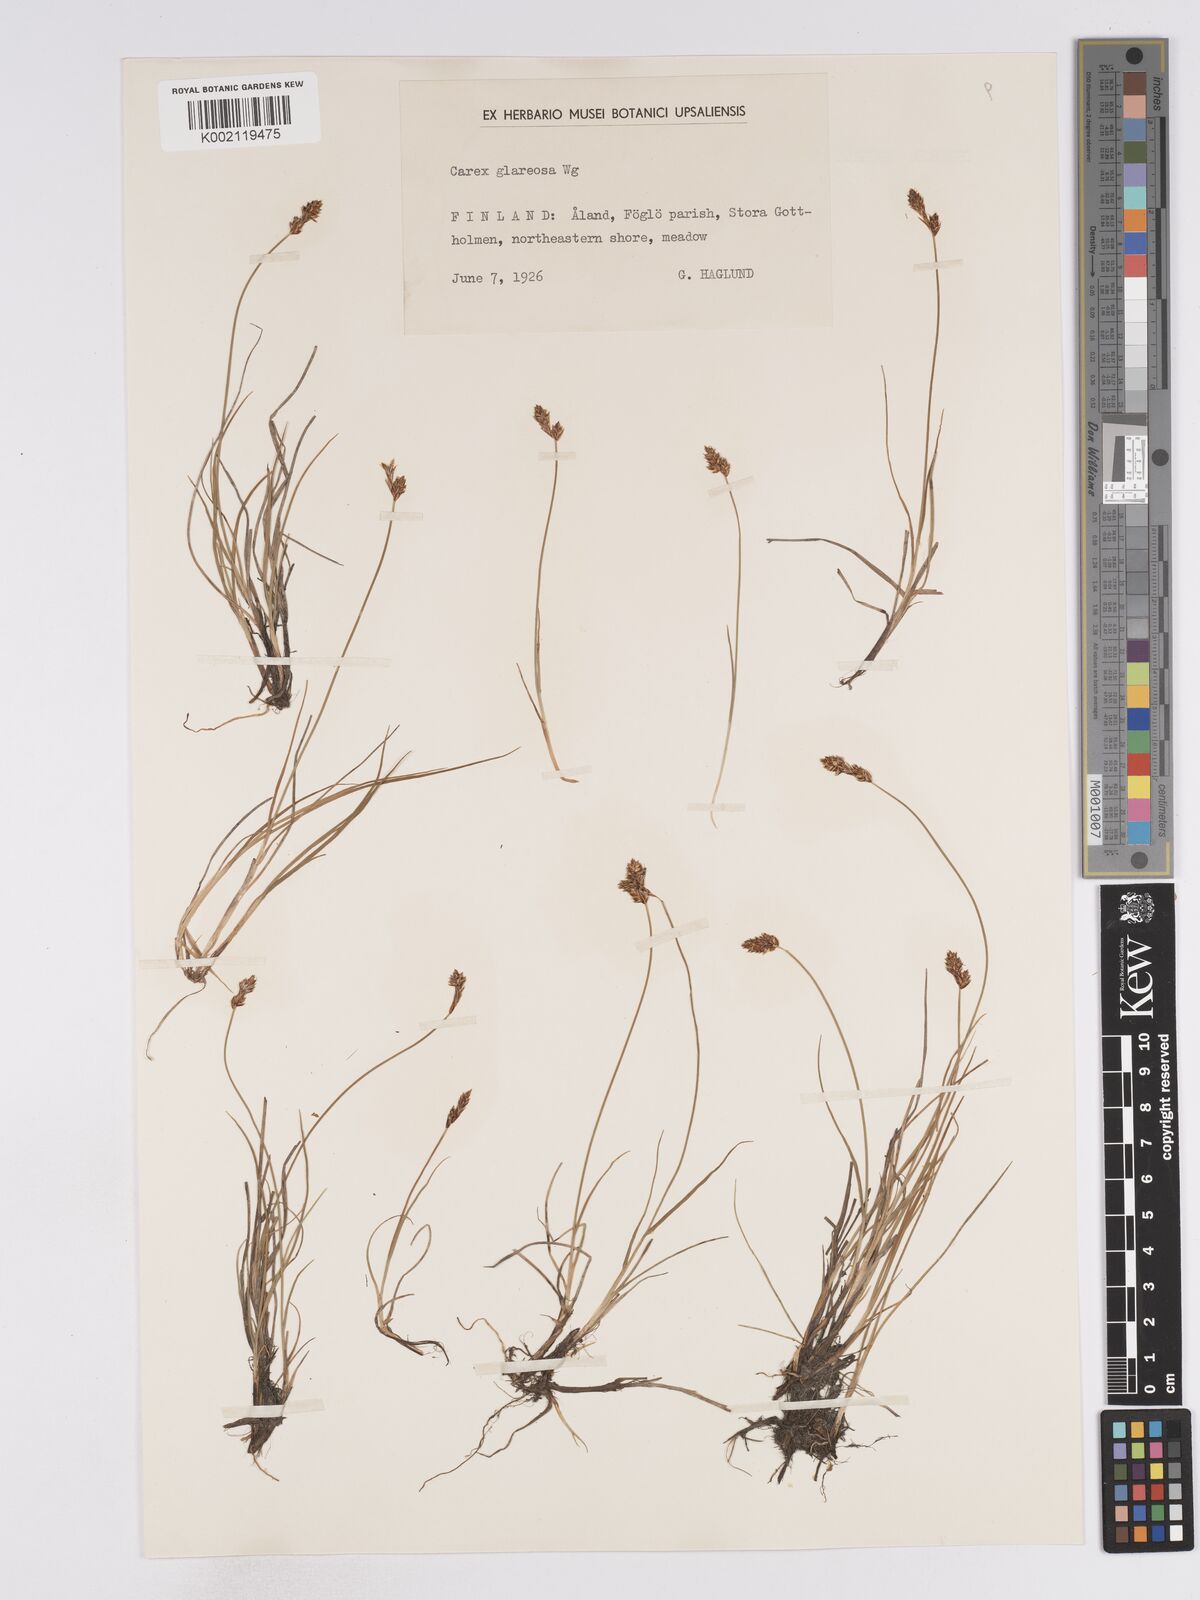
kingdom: Plantae
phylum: Tracheophyta
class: Liliopsida
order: Poales
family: Cyperaceae
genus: Carex
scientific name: Carex glareosa
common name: Clustered sedge
